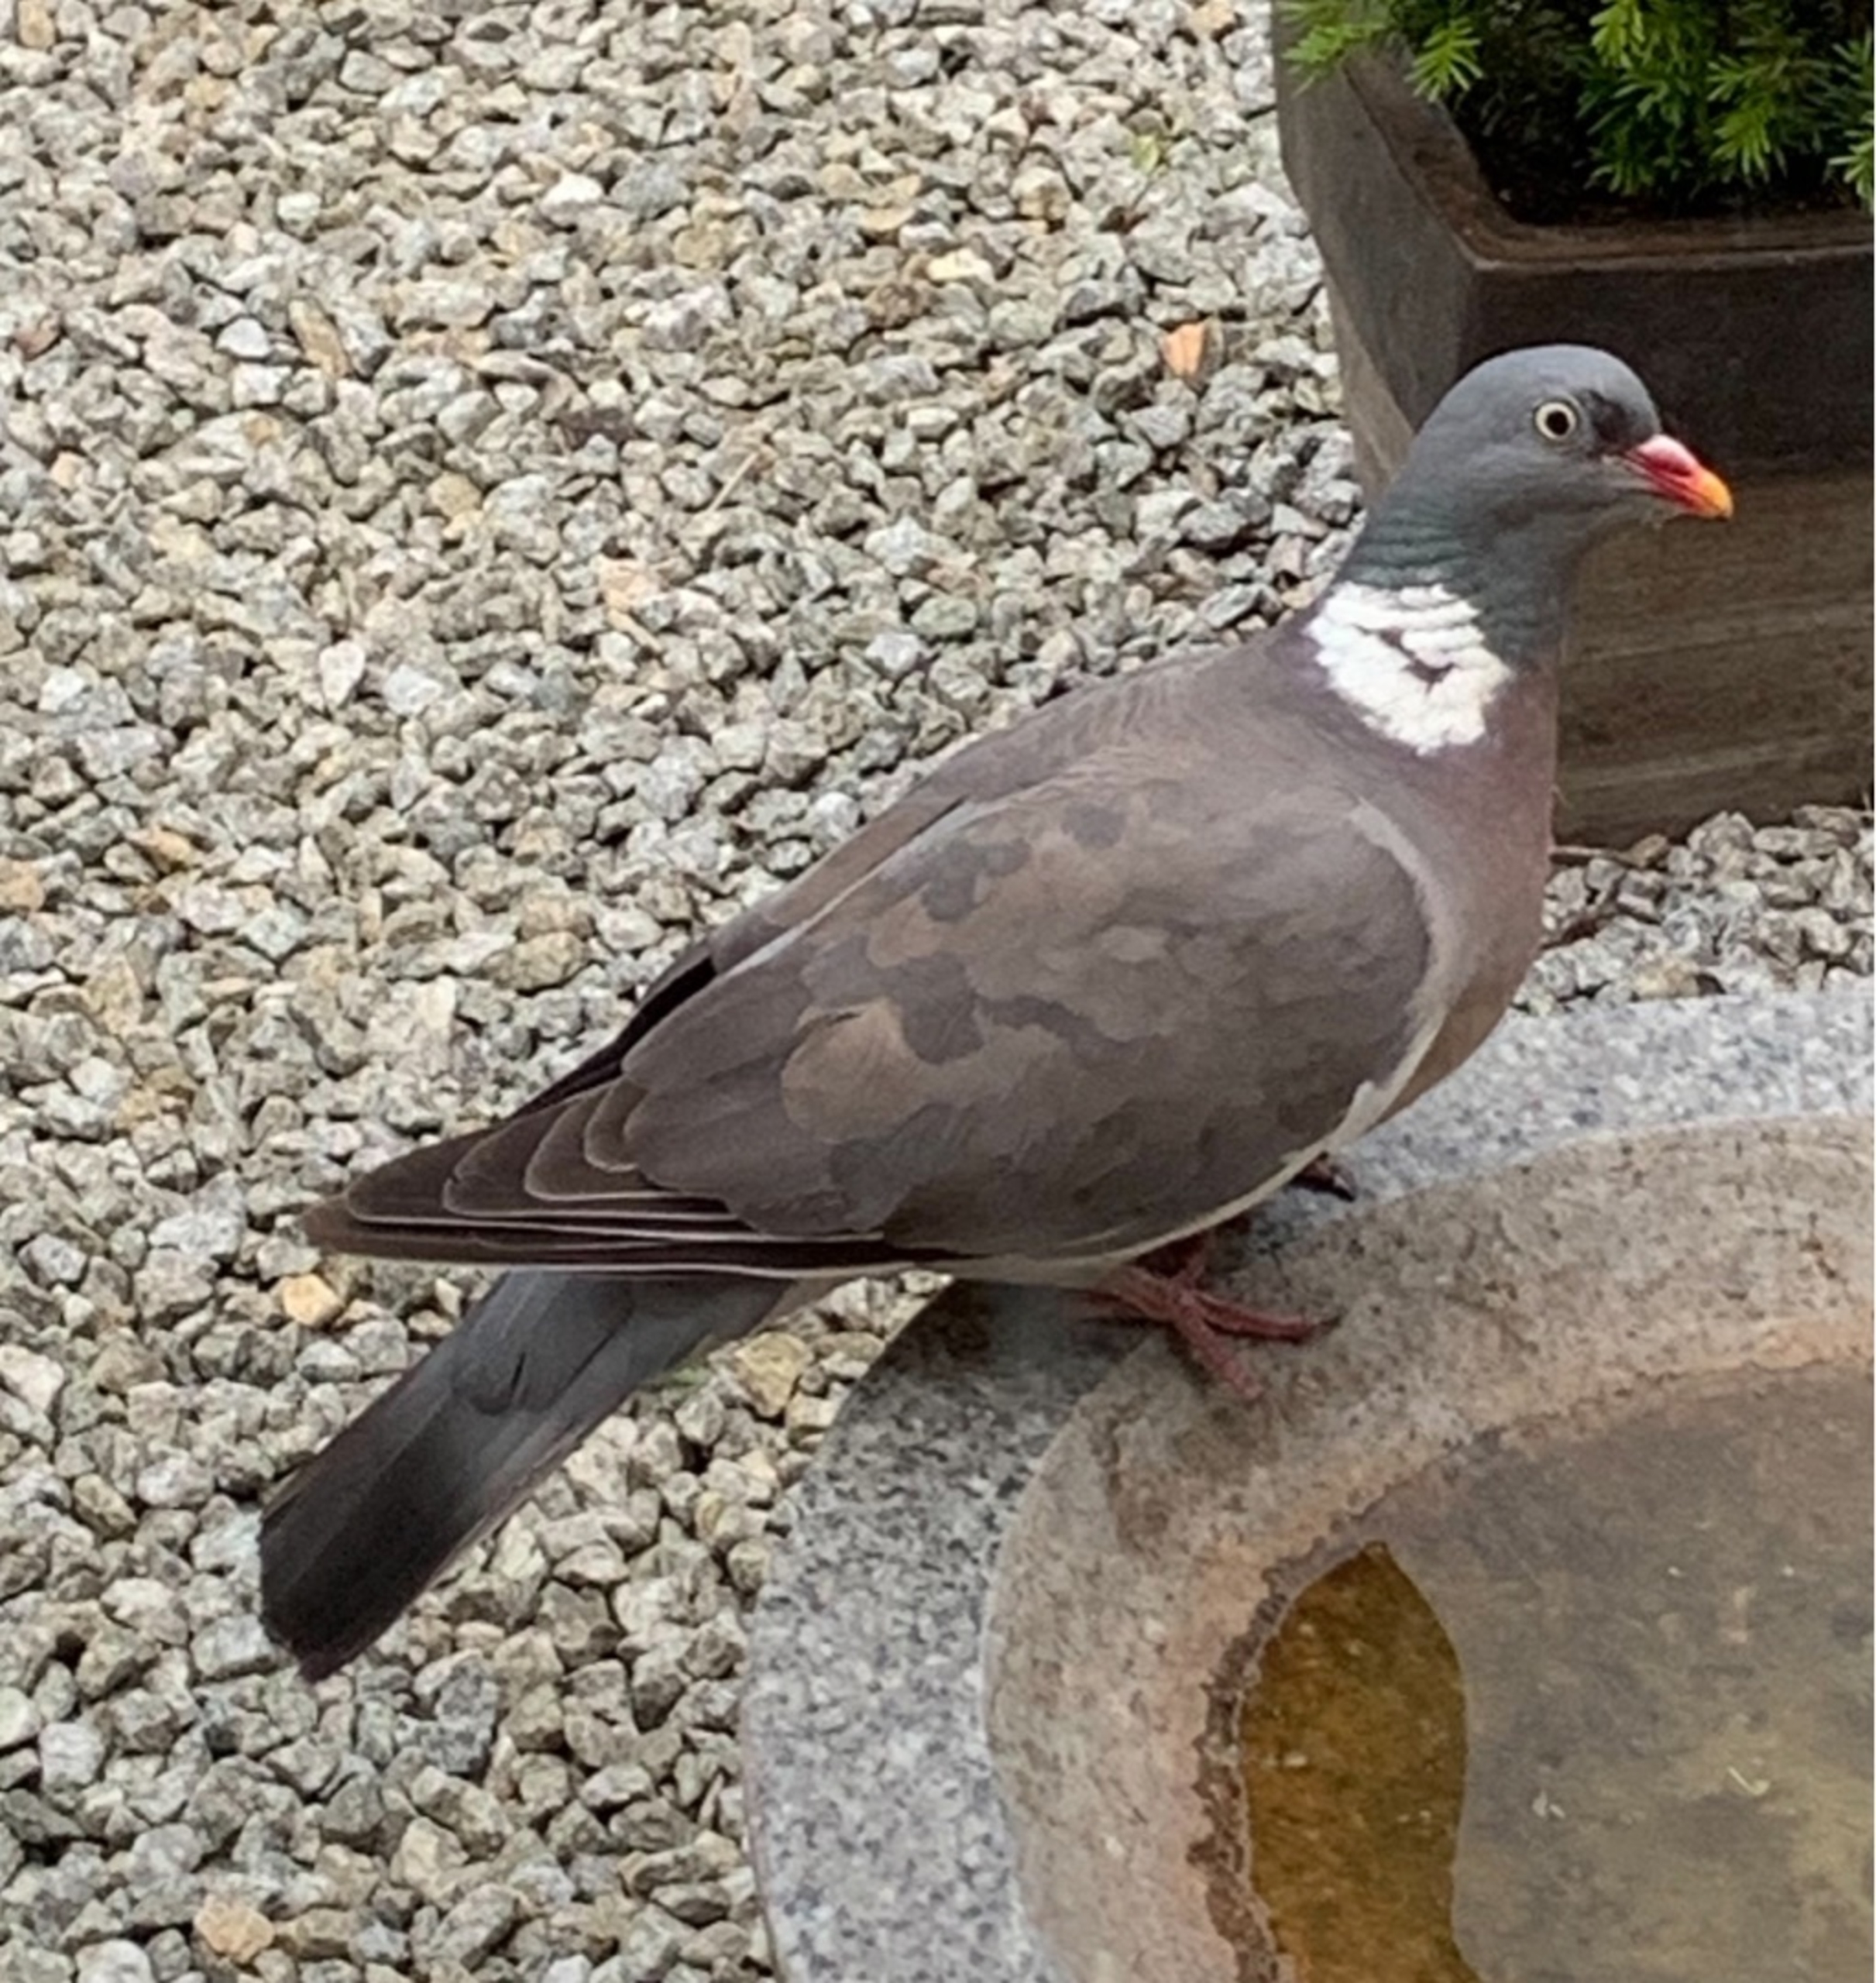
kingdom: Animalia
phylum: Chordata
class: Aves
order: Columbiformes
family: Columbidae
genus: Columba
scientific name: Columba palumbus
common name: Ringdue
